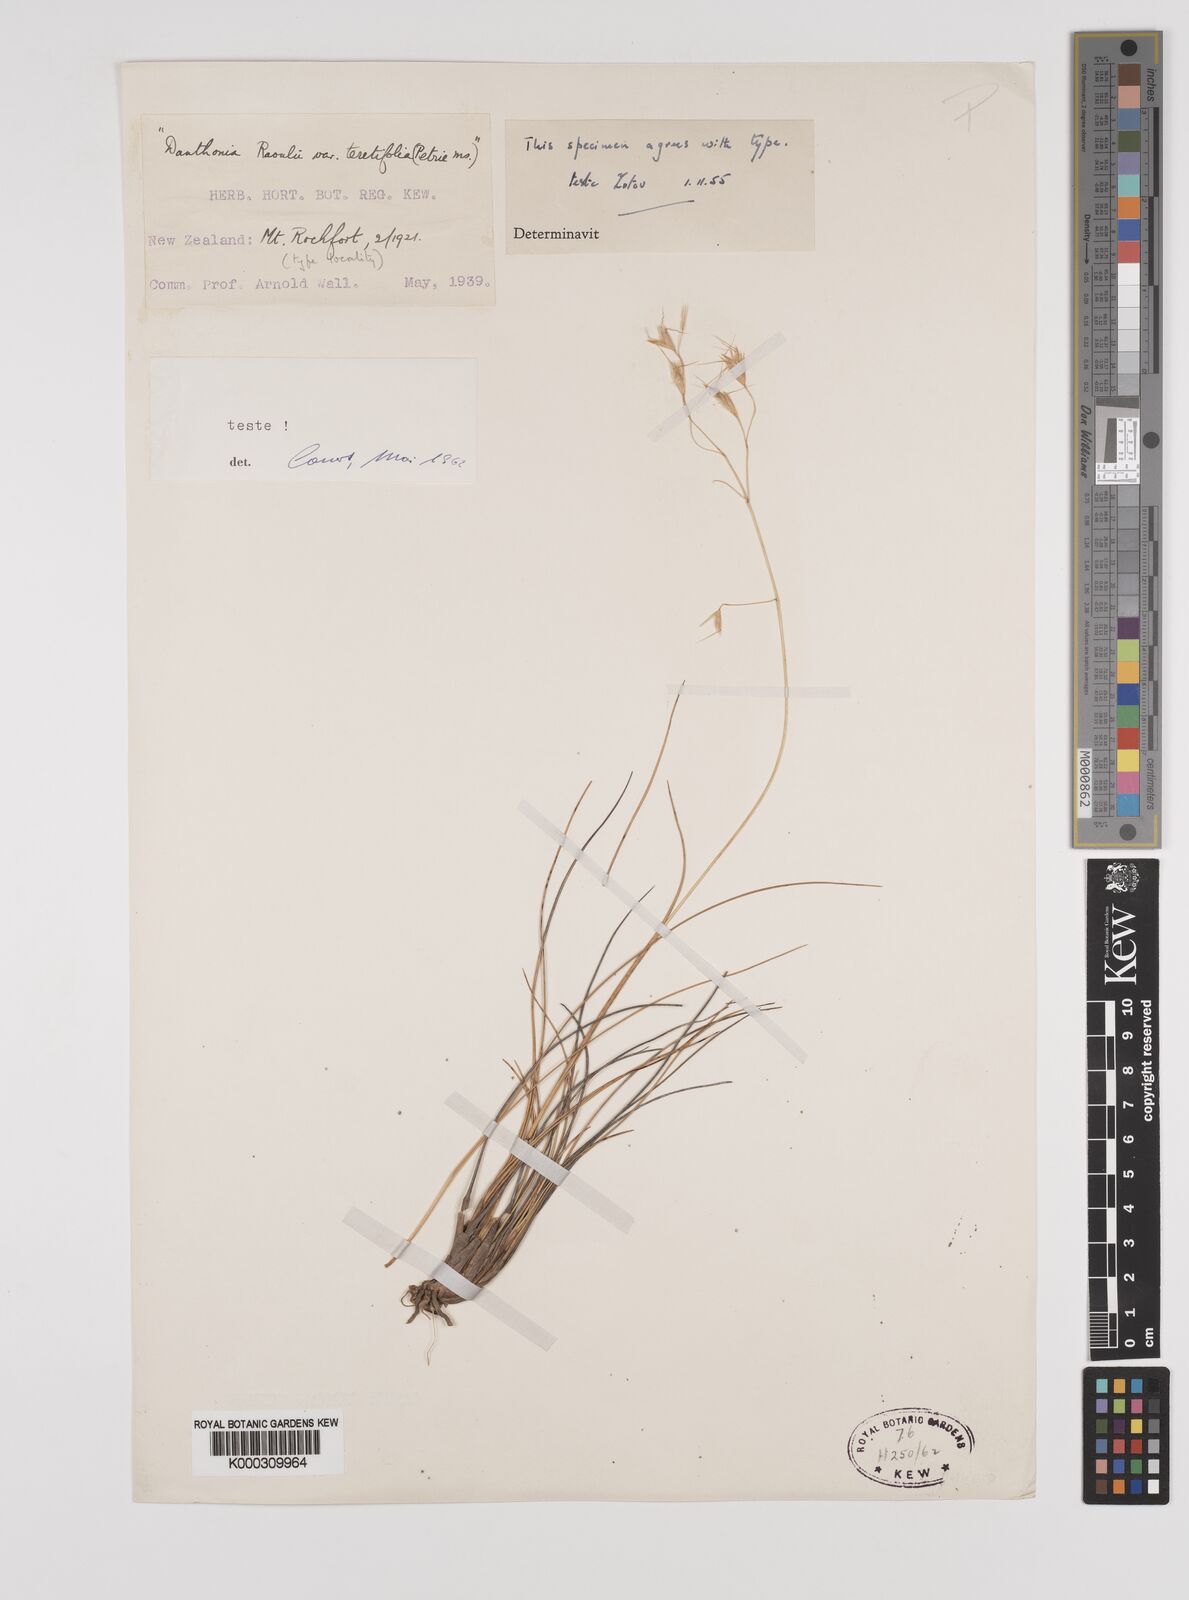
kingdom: Plantae
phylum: Tracheophyta
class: Liliopsida
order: Poales
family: Poaceae
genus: Chionochloa
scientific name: Chionochloa teretifolia
